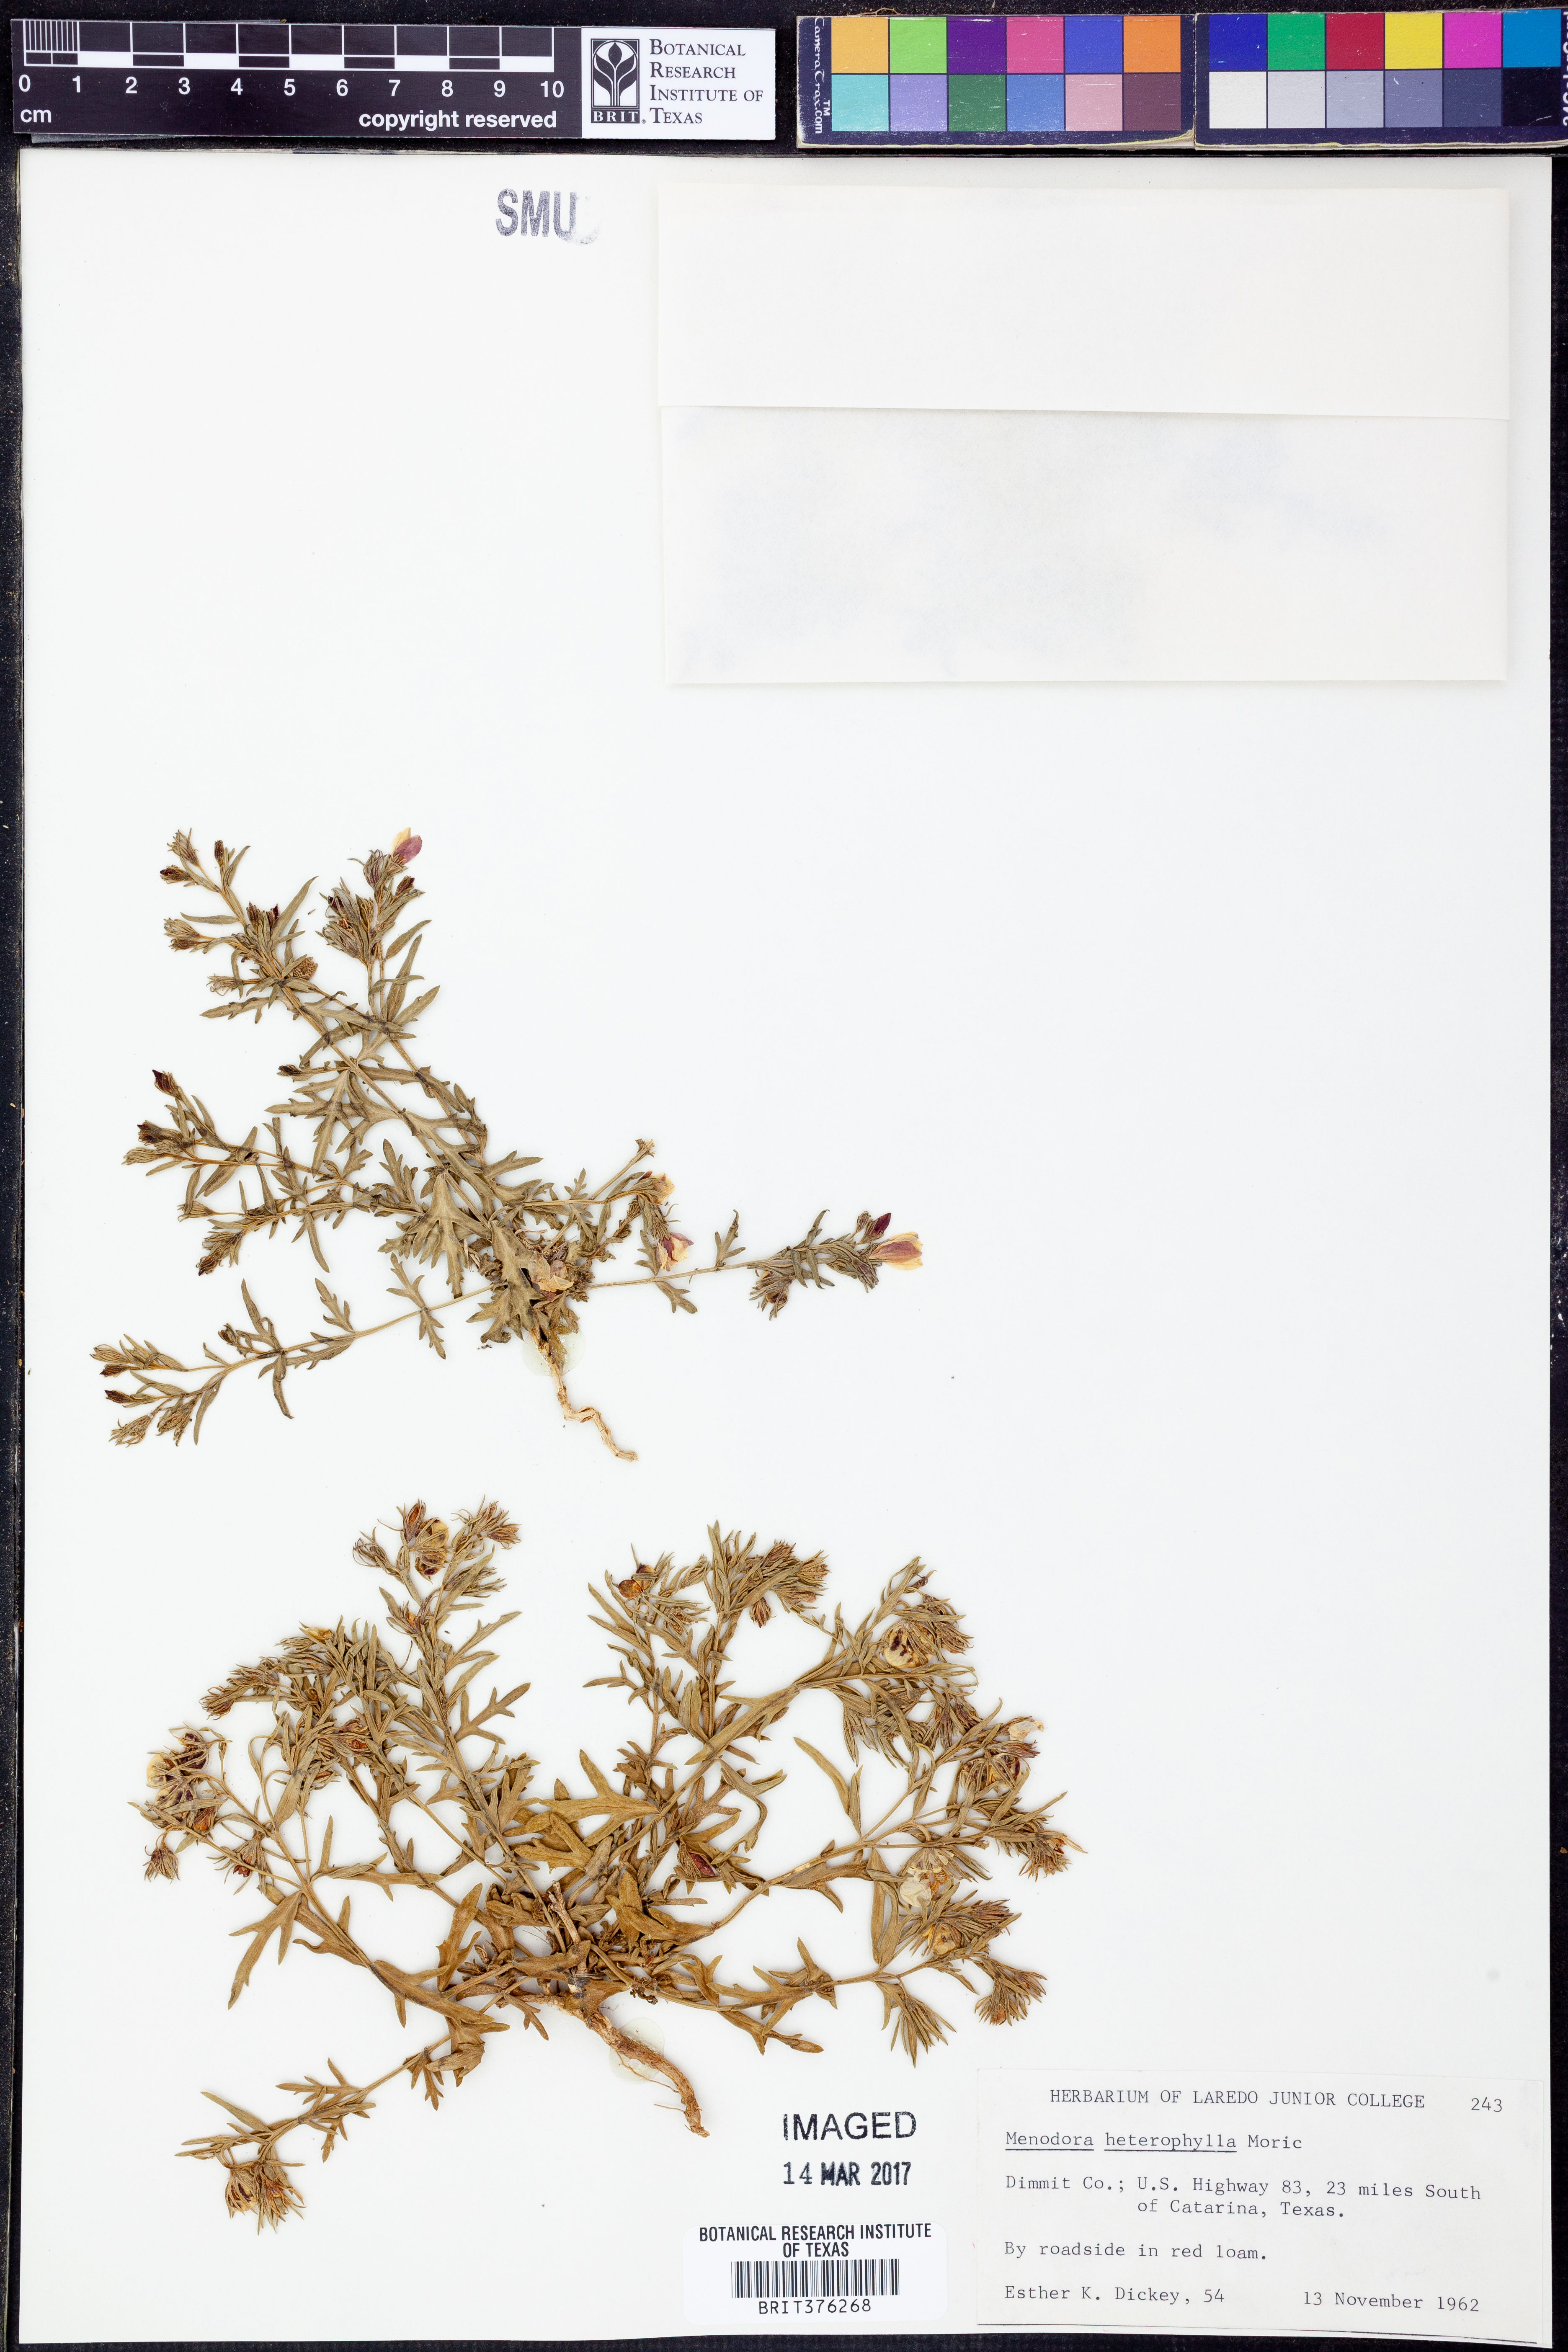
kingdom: Plantae
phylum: Tracheophyta
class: Magnoliopsida
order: Lamiales
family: Oleaceae
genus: Menodora
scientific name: Menodora heterophylla
